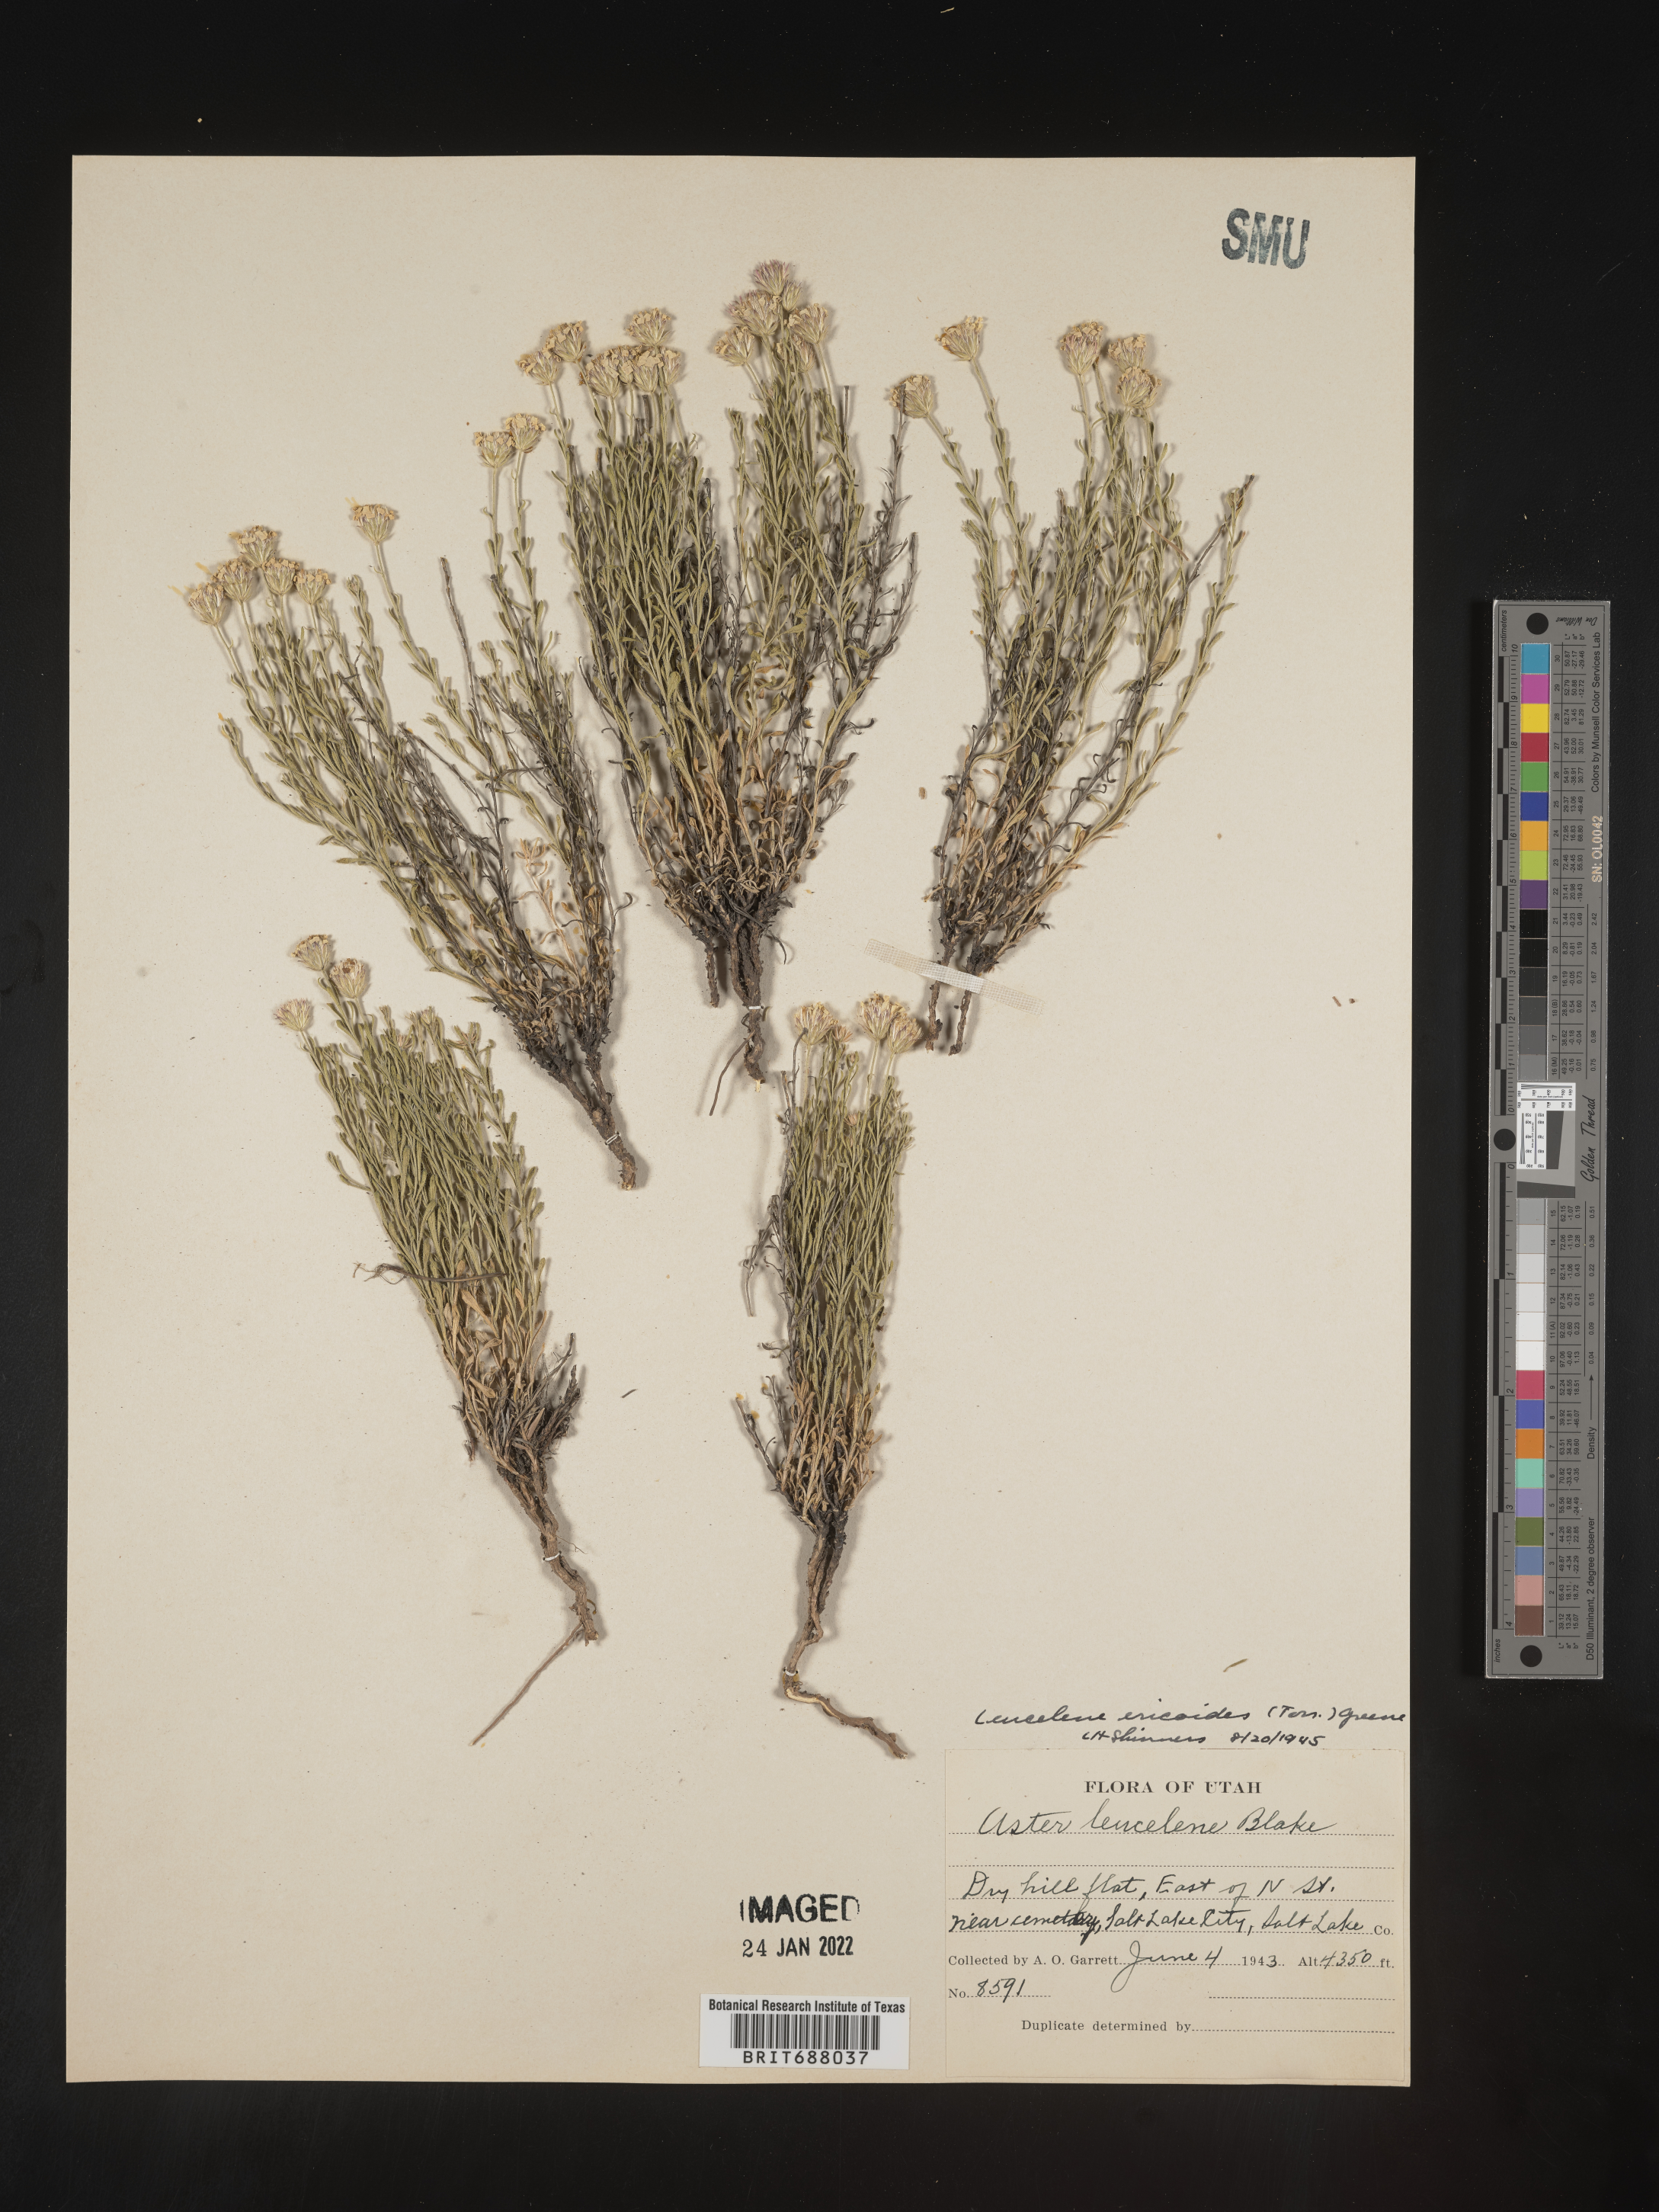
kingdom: Plantae
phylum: Tracheophyta
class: Magnoliopsida
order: Asterales
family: Asteraceae
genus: Chaetopappa
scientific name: Chaetopappa ericoides
